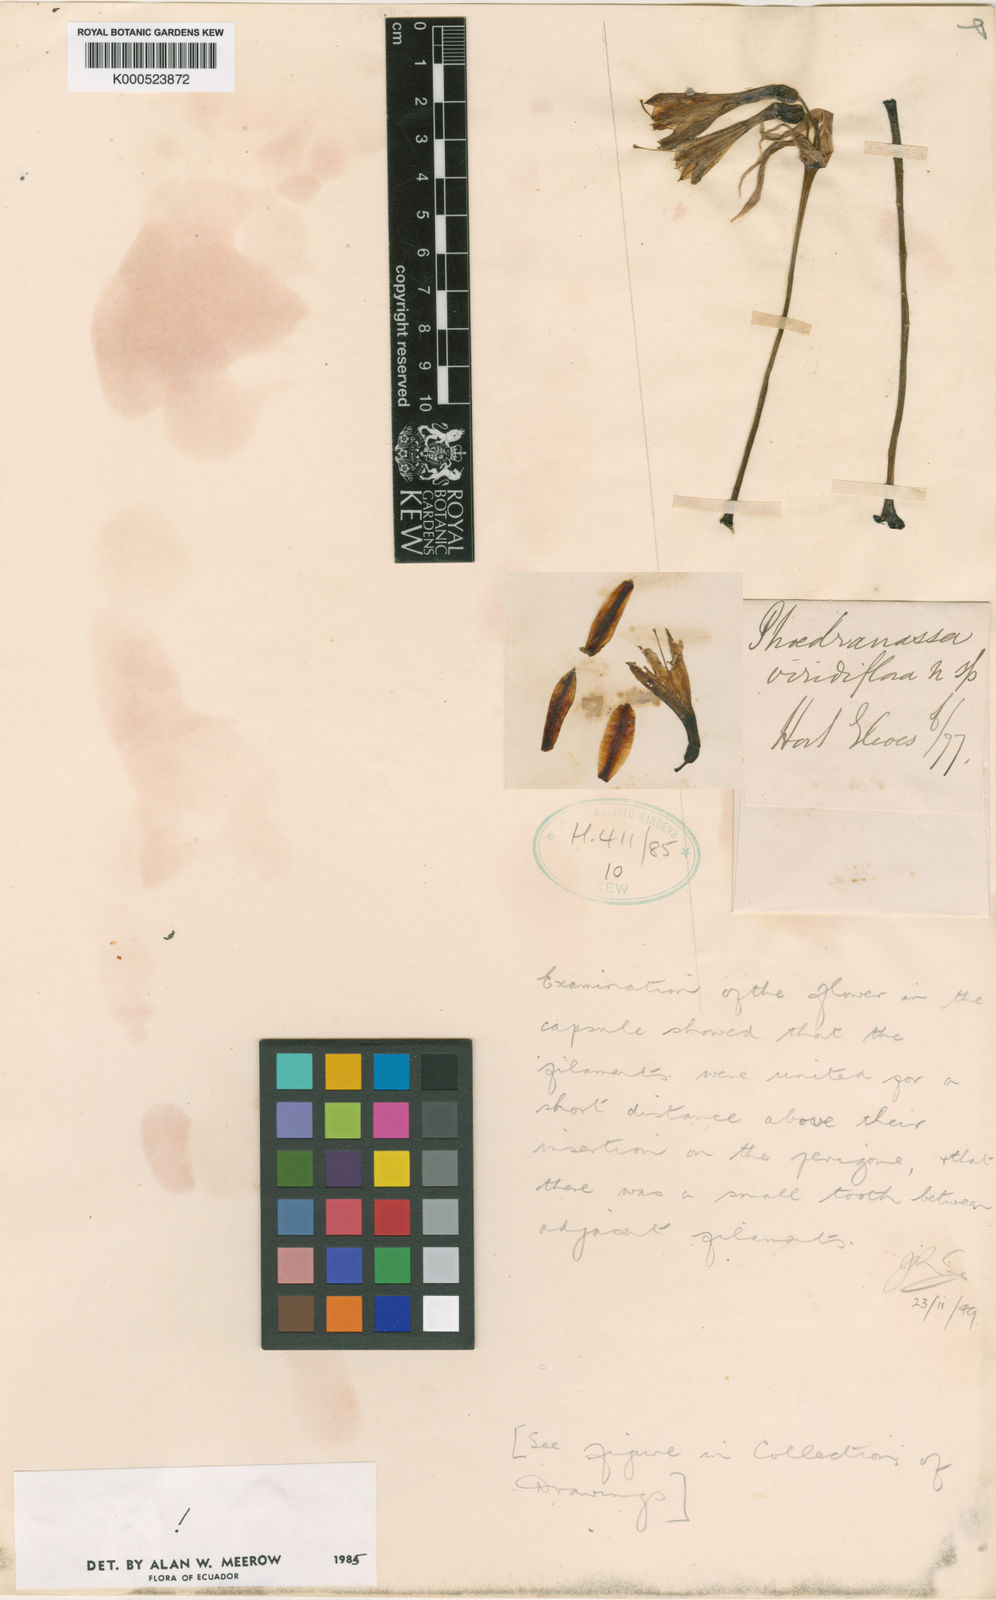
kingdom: Plantae
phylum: Tracheophyta
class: Liliopsida
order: Asparagales
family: Amaryllidaceae
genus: Phaedranassa
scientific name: Phaedranassa viridiflora
